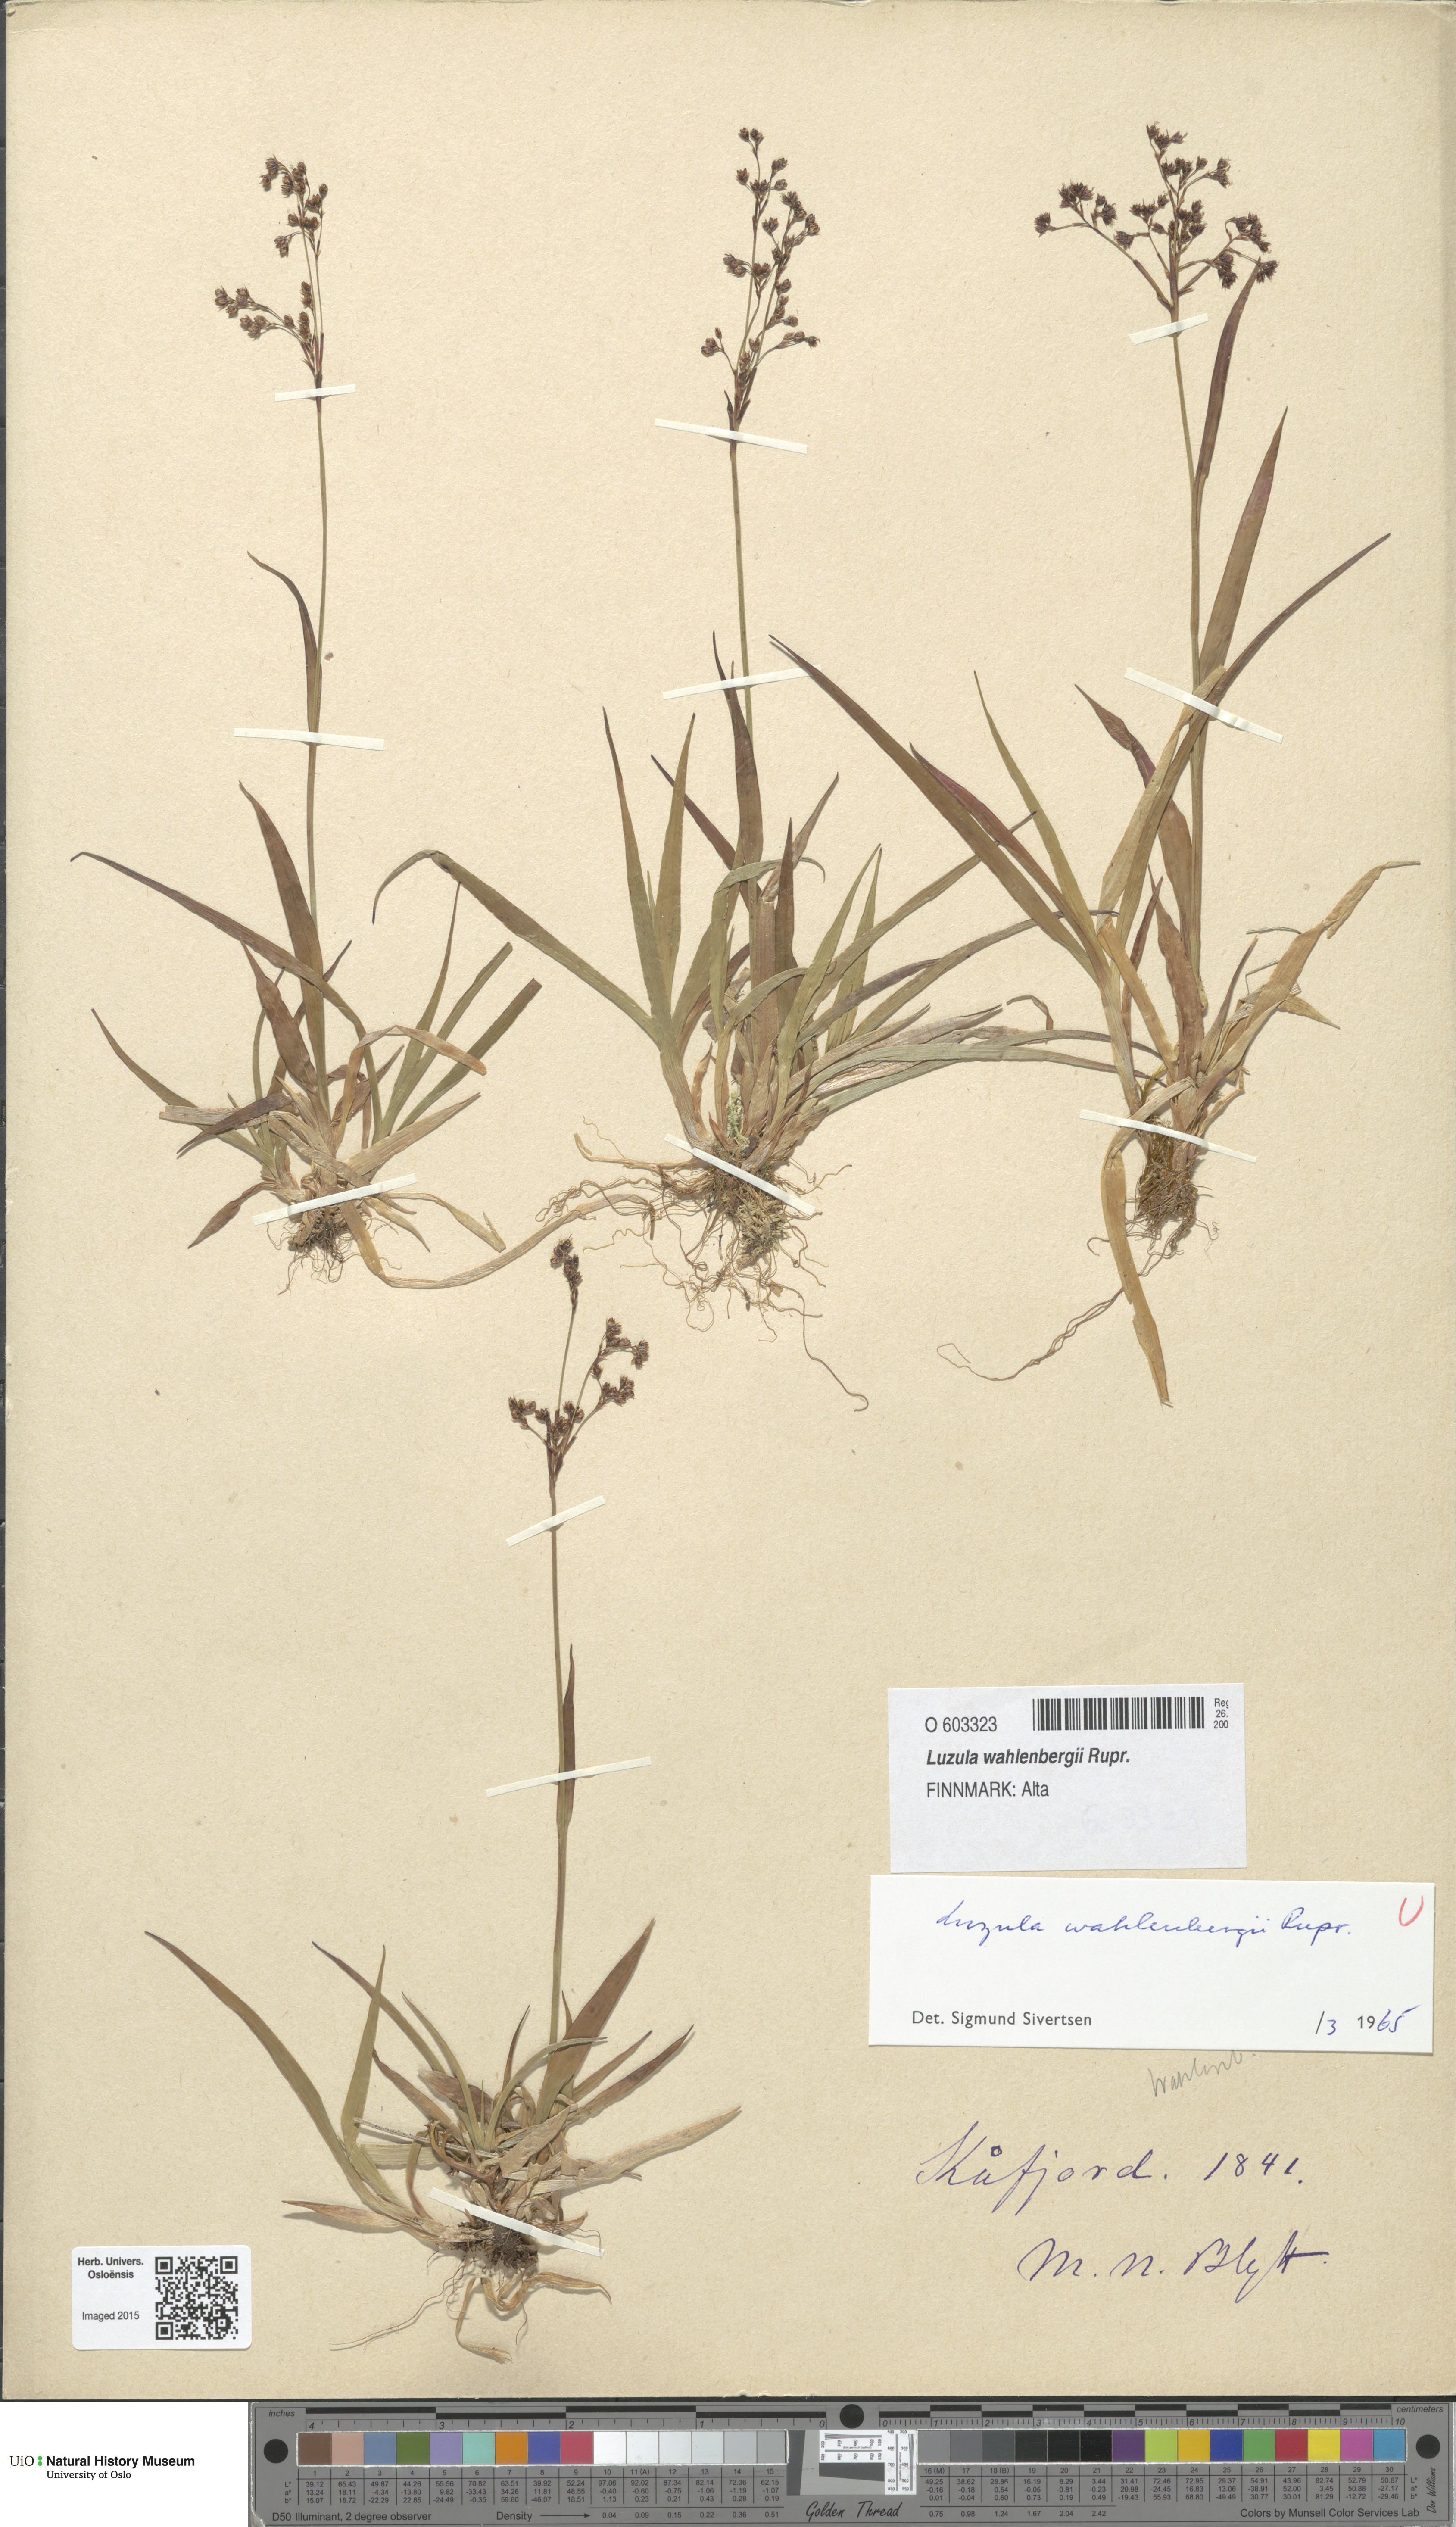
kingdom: Plantae
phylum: Tracheophyta
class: Liliopsida
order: Poales
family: Juncaceae
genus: Luzula
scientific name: Luzula wahlenbergii
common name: Wahlenberg's wood-rush
